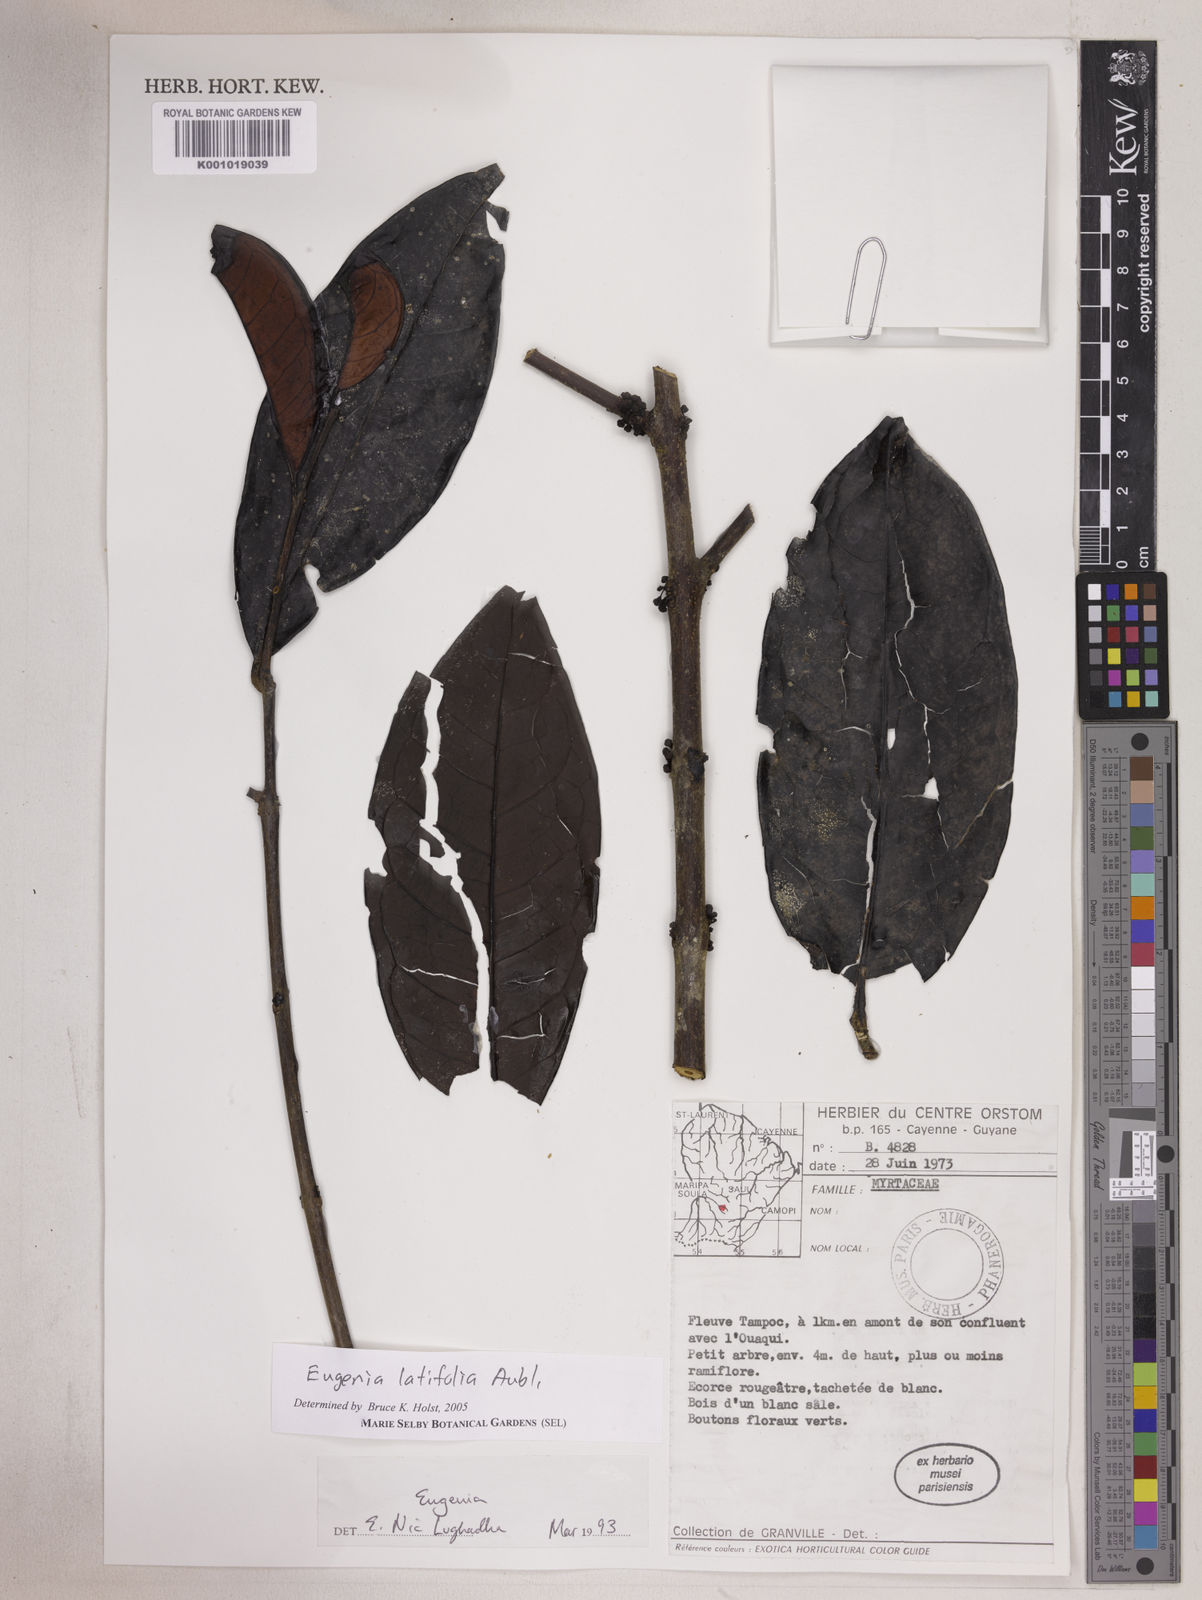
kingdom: Plantae
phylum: Tracheophyta
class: Magnoliopsida
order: Myrtales
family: Myrtaceae
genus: Eugenia
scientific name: Eugenia latifolia
